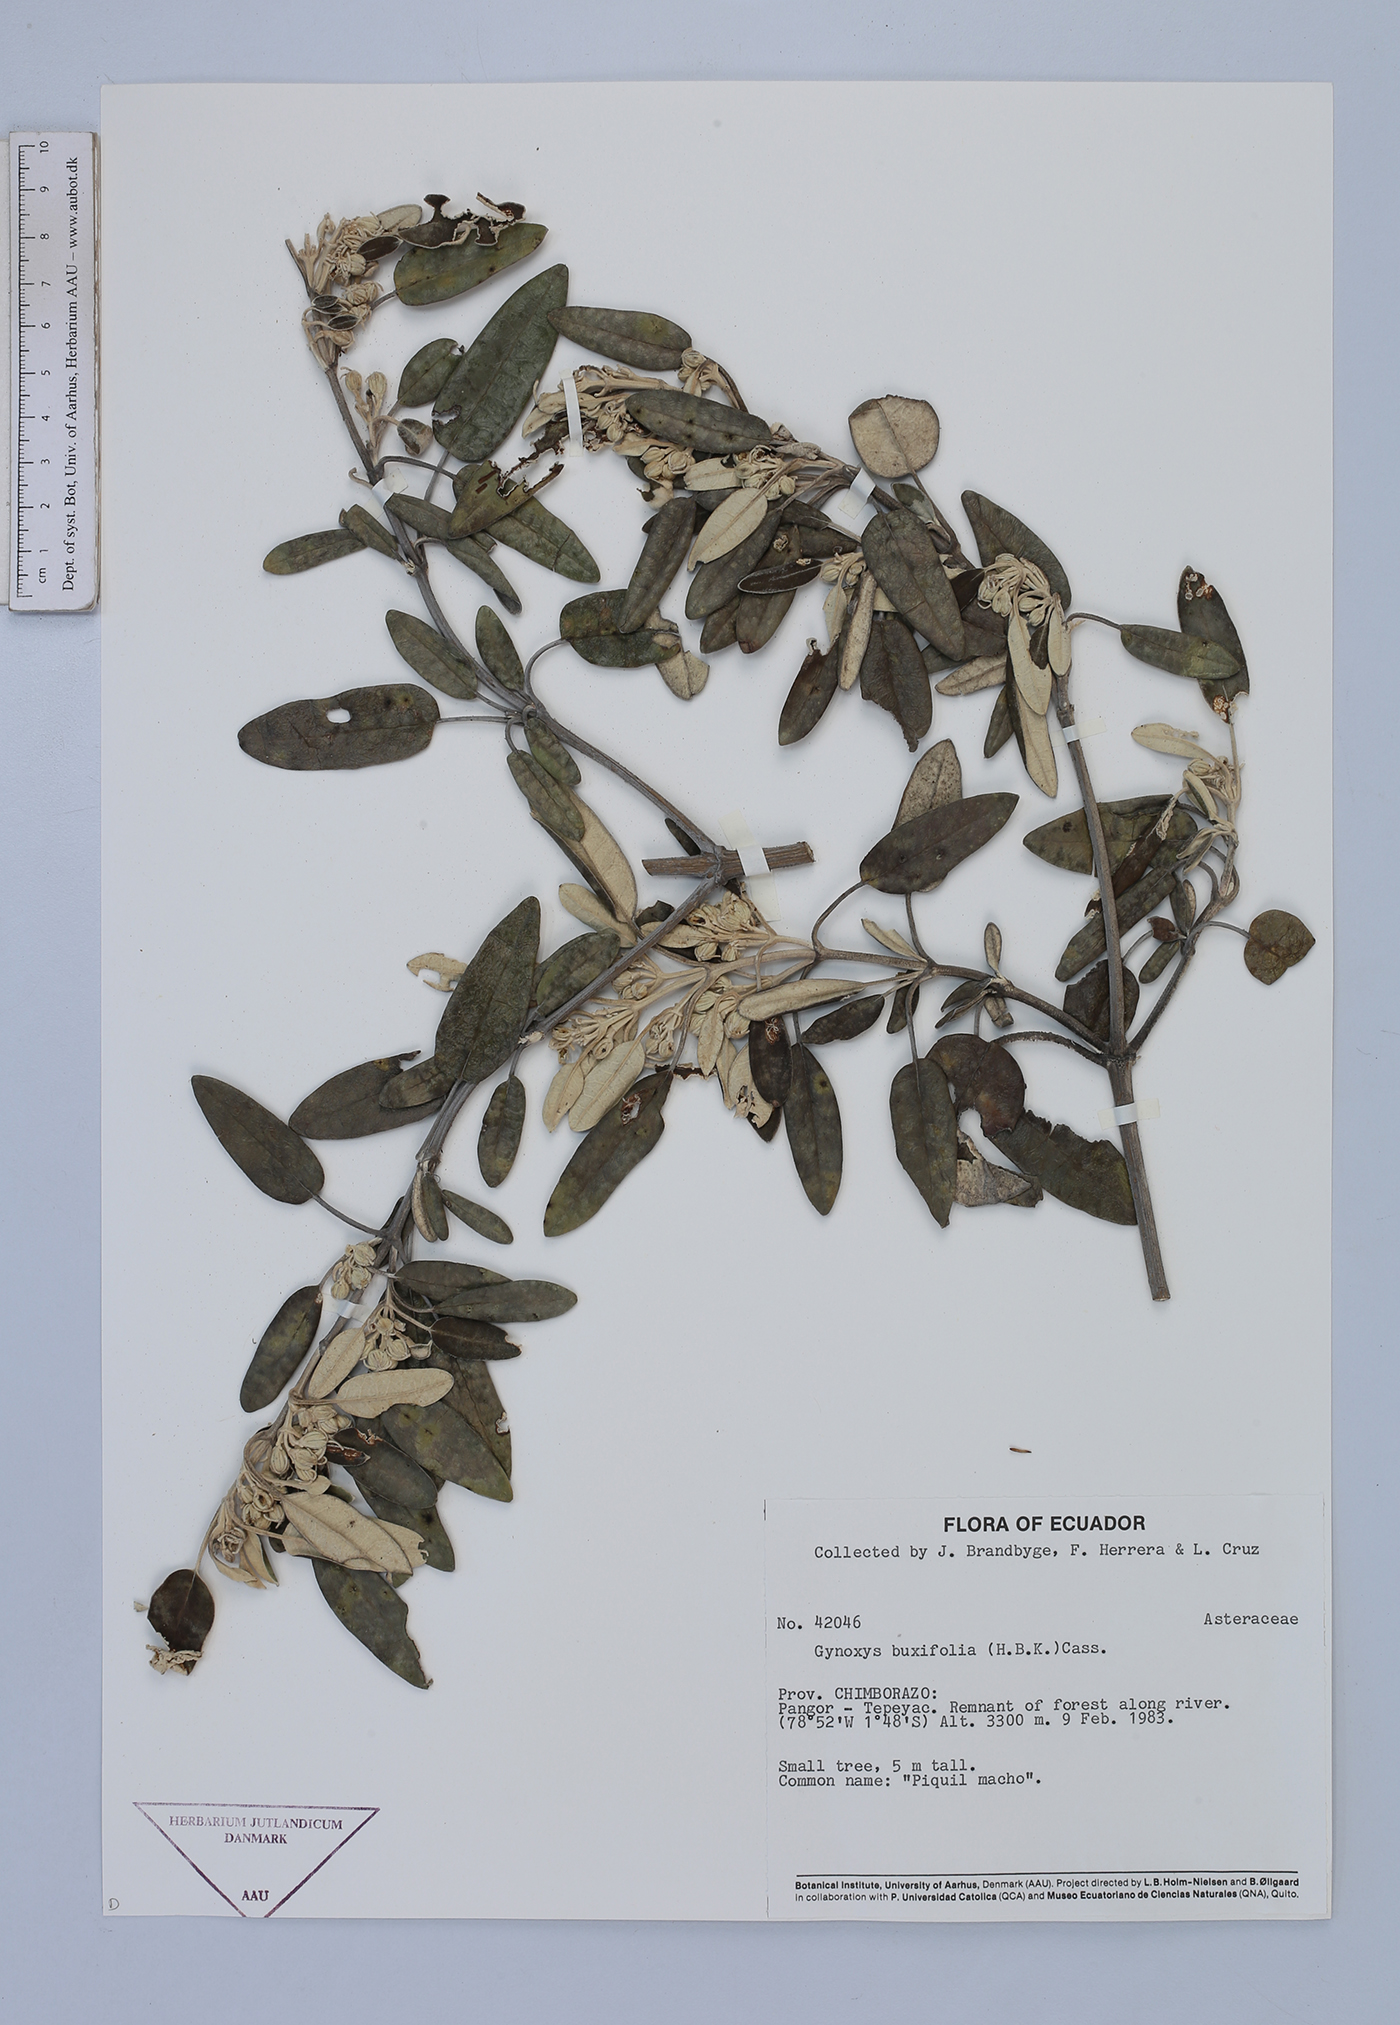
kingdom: Plantae
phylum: Tracheophyta
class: Magnoliopsida
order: Asterales
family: Asteraceae
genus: Gynoxys
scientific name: Gynoxys sodiroi
